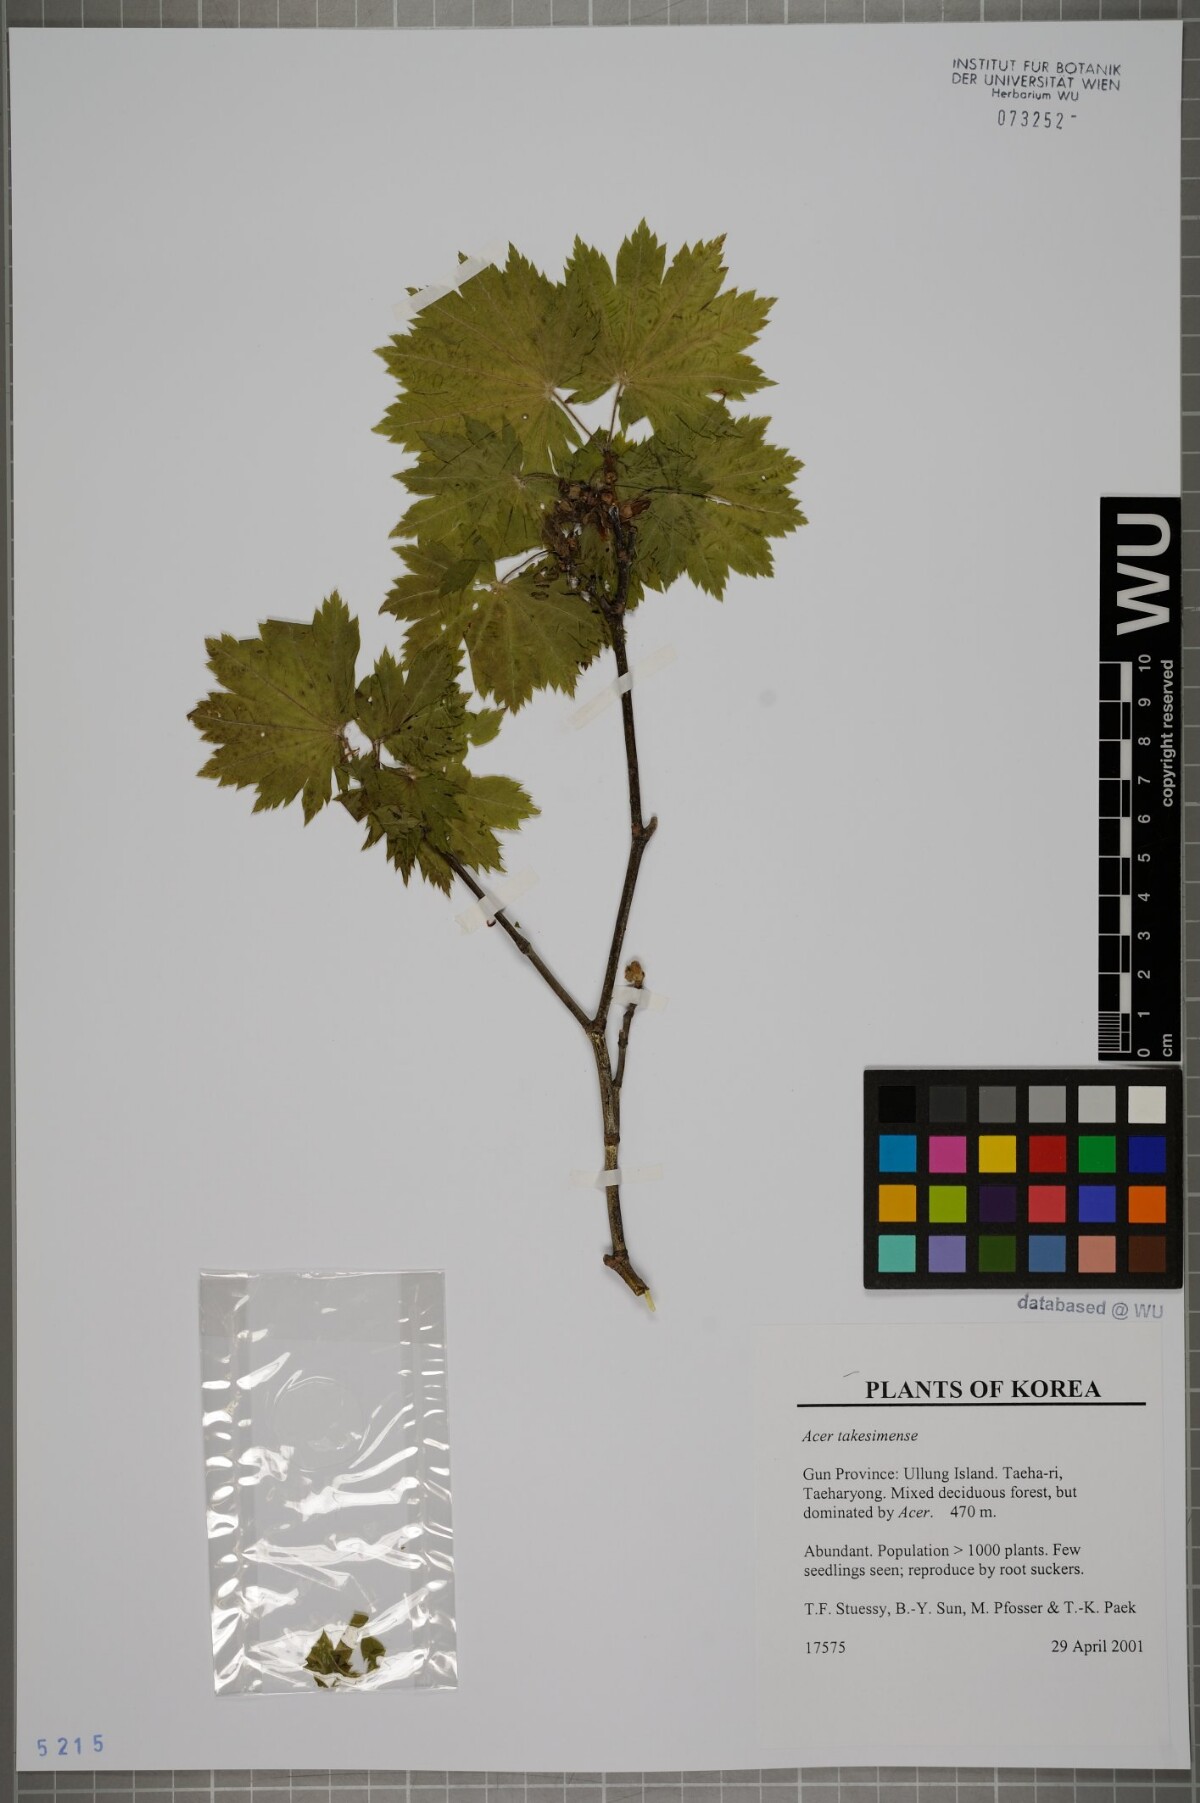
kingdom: Plantae
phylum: Tracheophyta
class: Magnoliopsida
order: Sapindales
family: Sapindaceae
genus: Acer
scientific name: Acer pseudosieboldianum
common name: Korean maple
